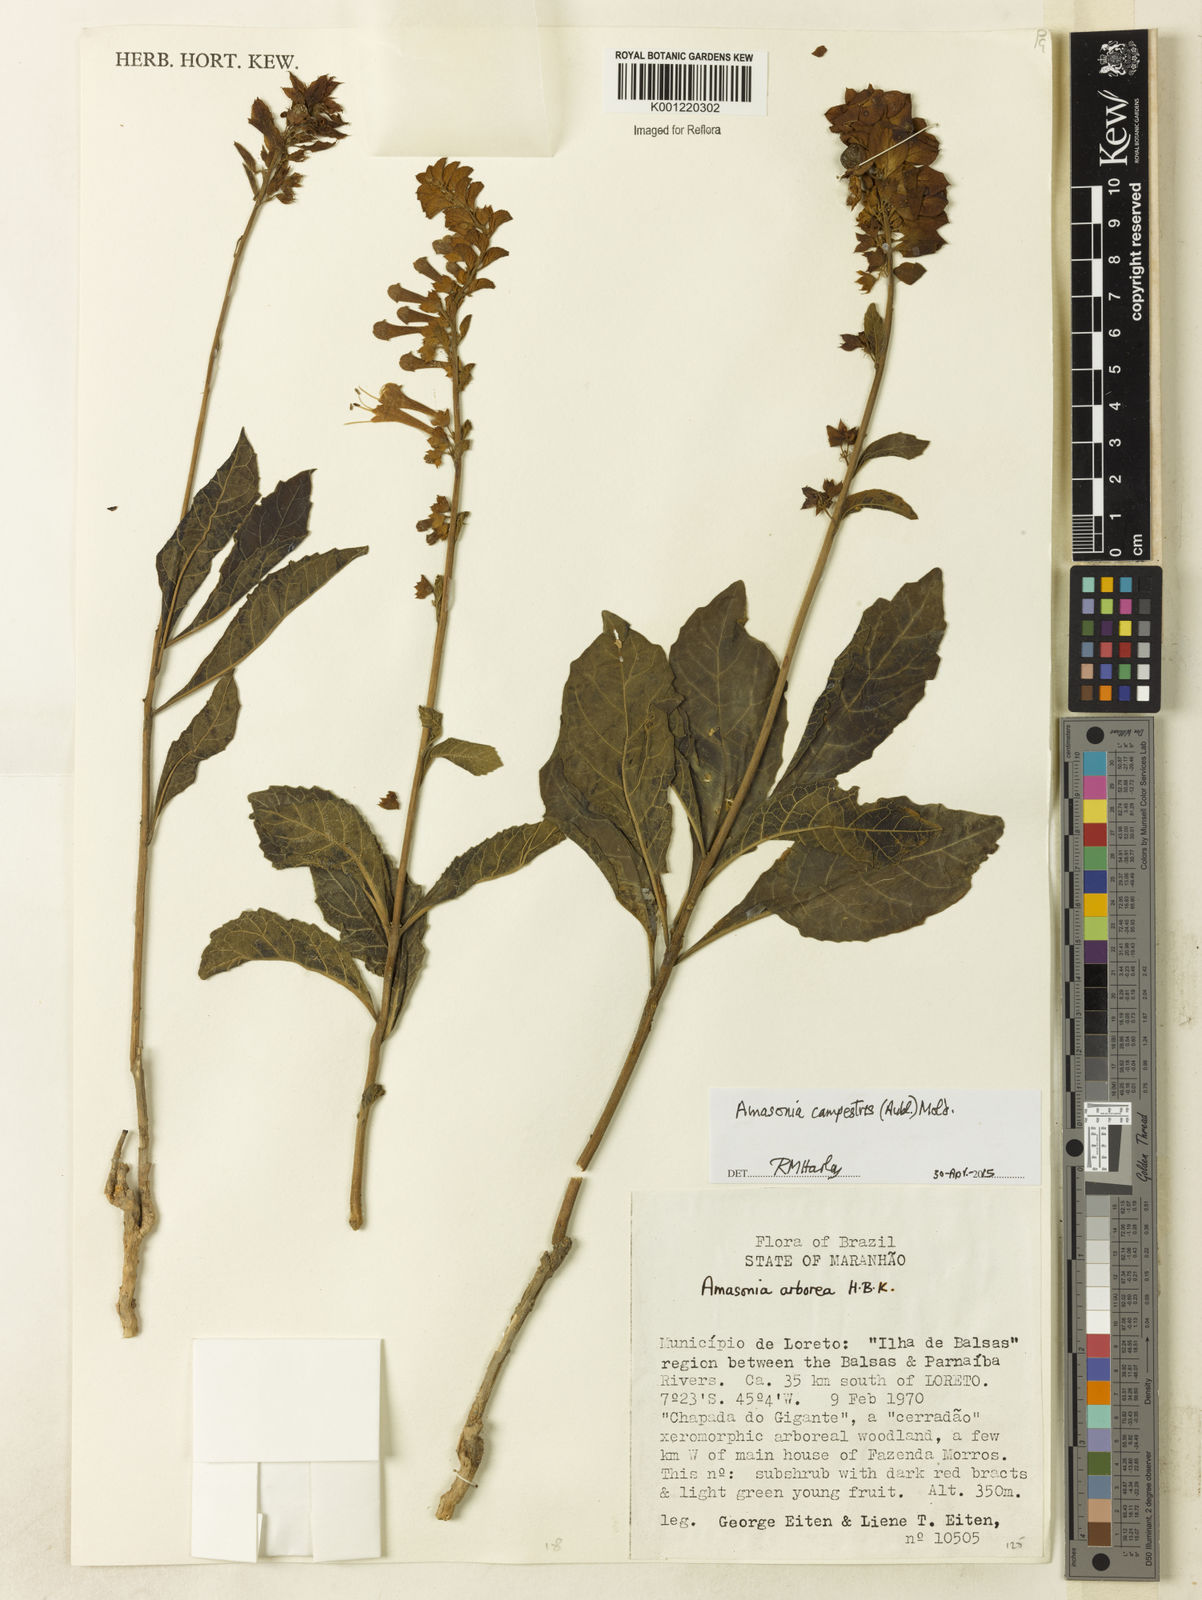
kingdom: Plantae
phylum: Tracheophyta
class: Magnoliopsida
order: Lamiales
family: Lamiaceae
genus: Amasonia
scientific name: Amasonia campestris
